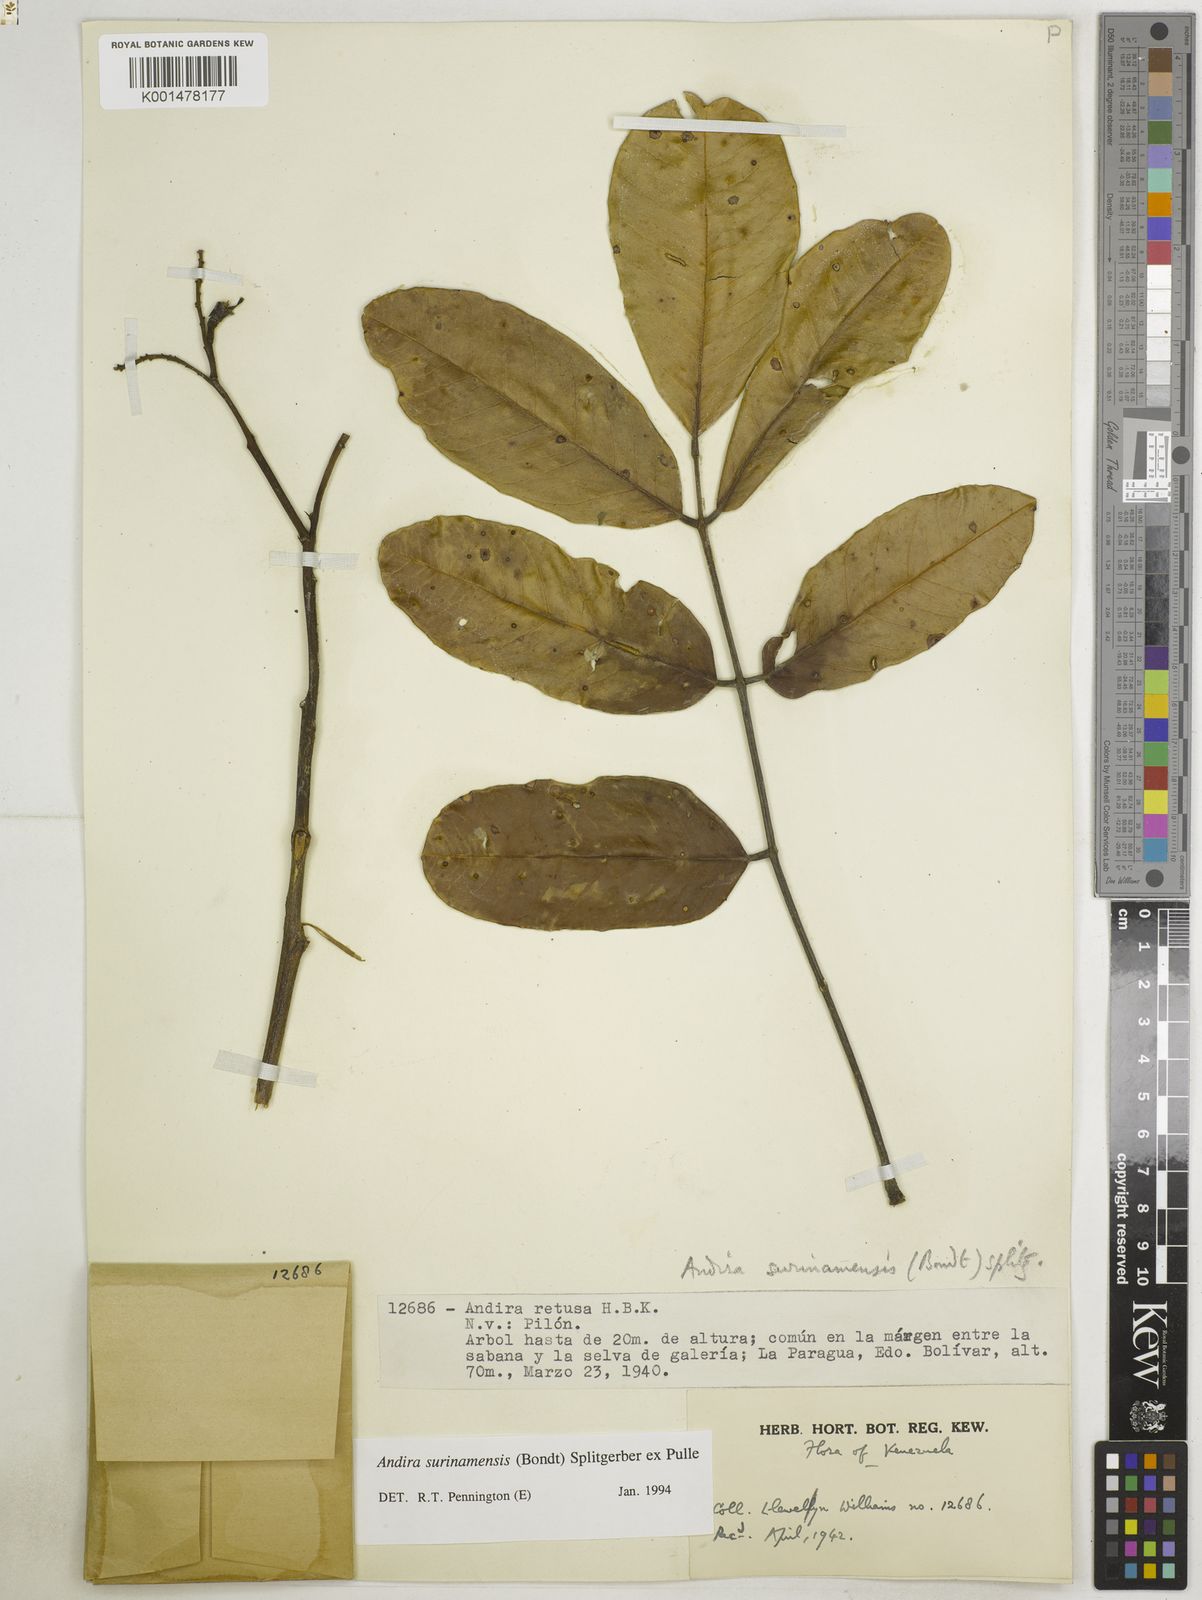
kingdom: Plantae
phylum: Tracheophyta
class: Magnoliopsida
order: Fabales
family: Fabaceae
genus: Andira
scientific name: Andira surinamensis
